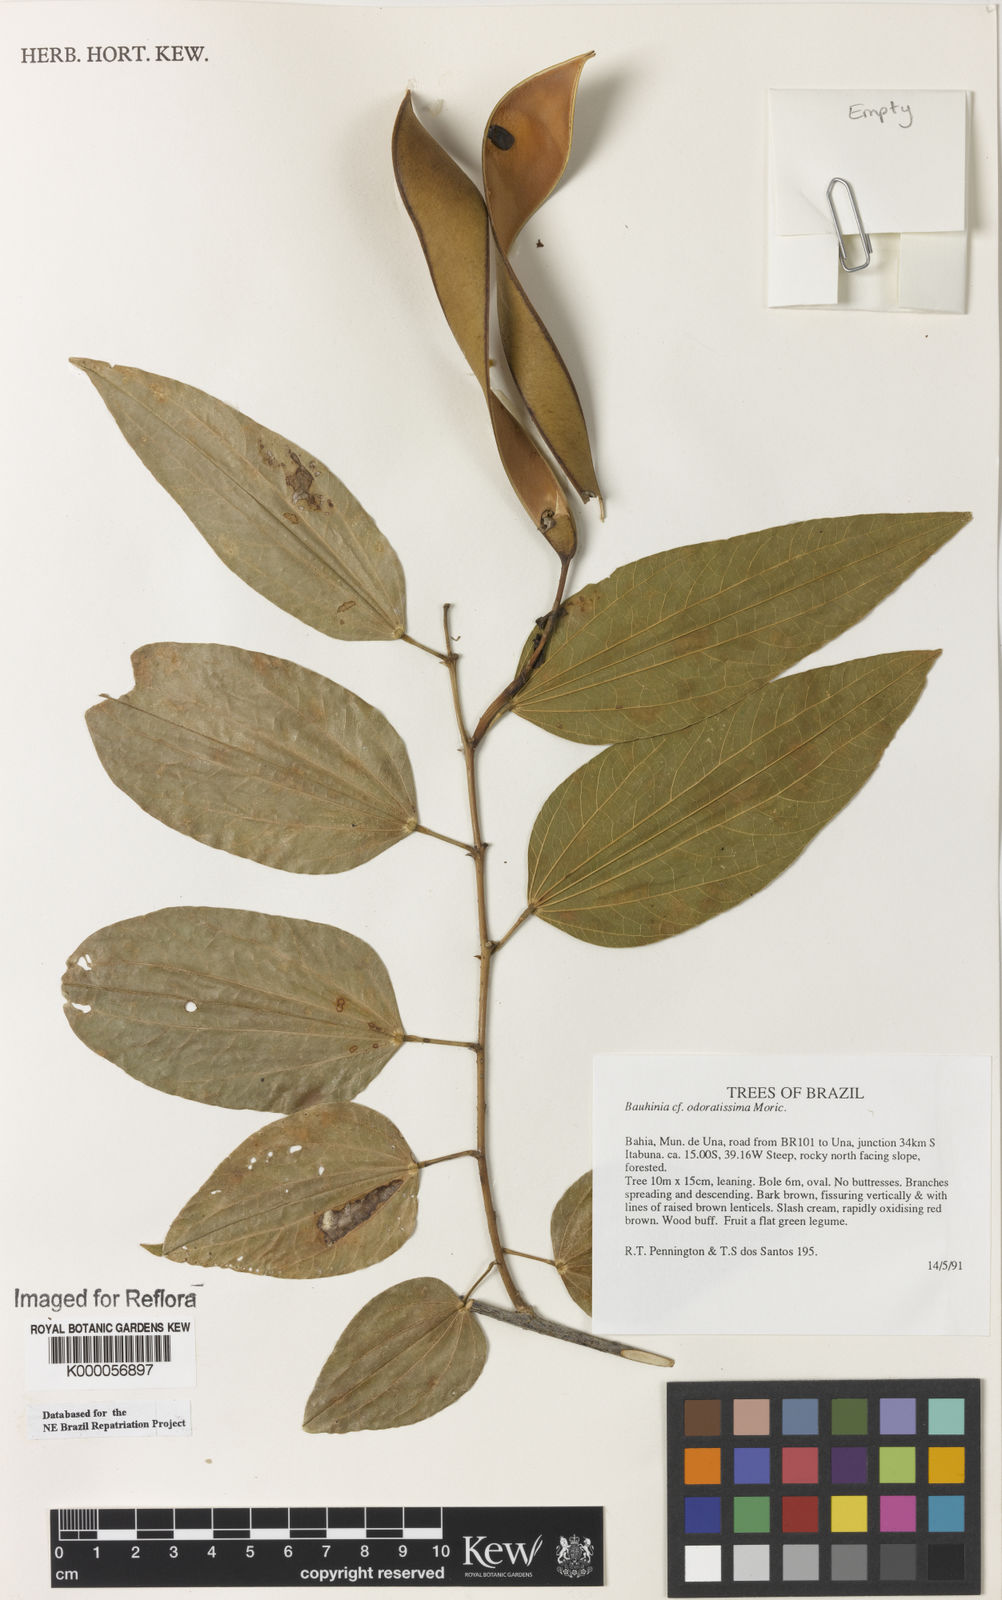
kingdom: Plantae
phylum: Tracheophyta
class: Magnoliopsida
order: Fabales
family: Fabaceae
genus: Bauhinia
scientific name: Bauhinia integerrima
